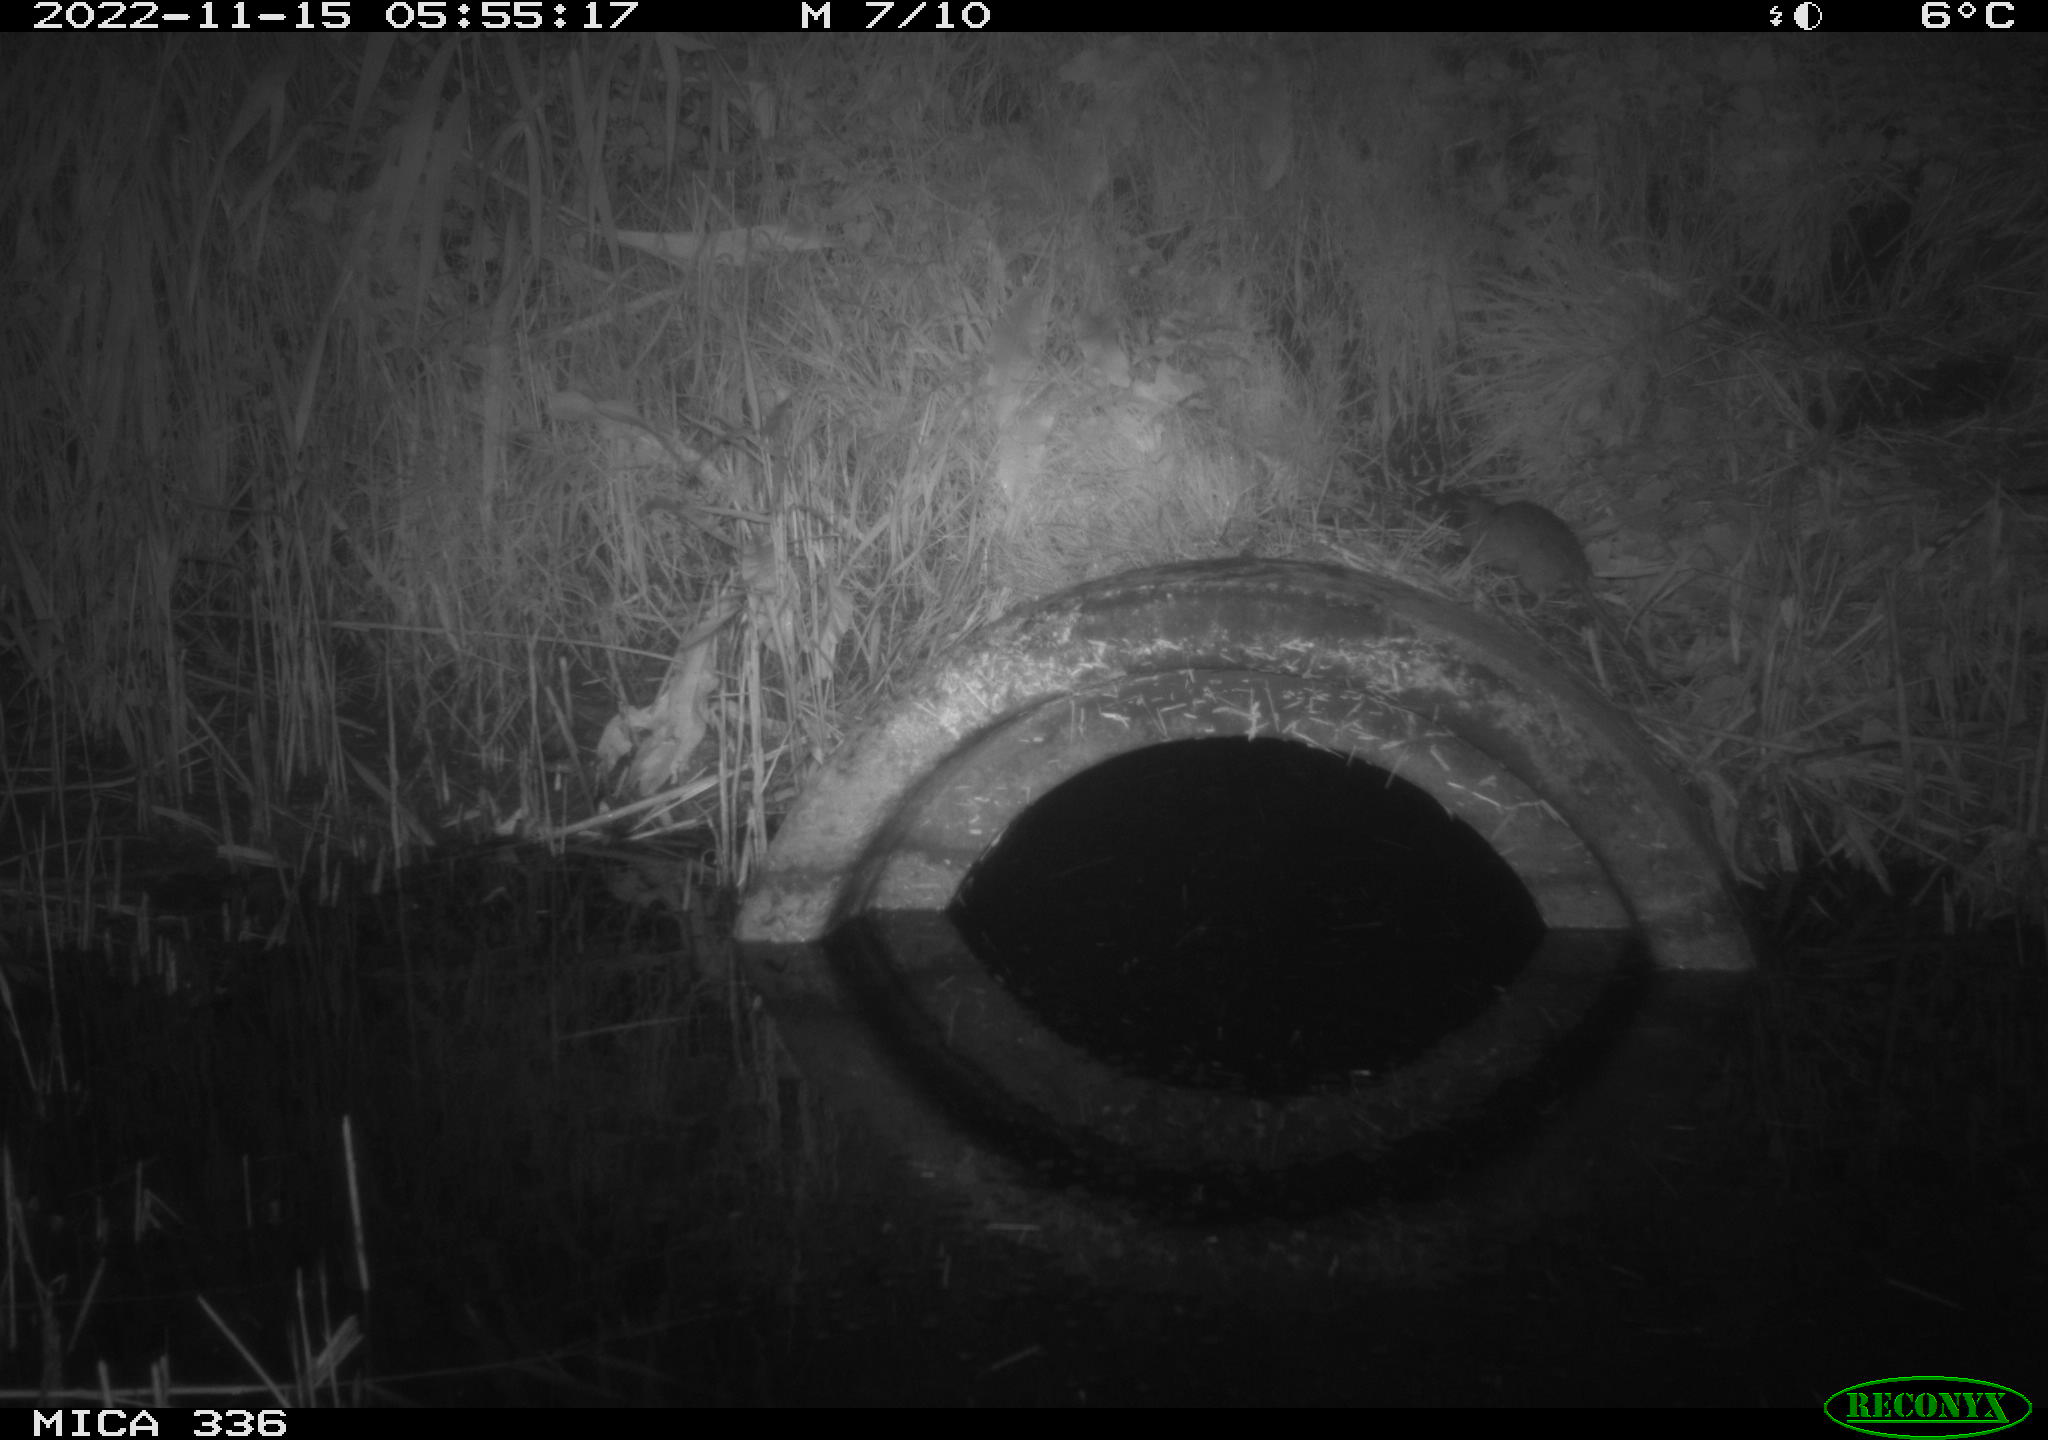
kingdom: Animalia
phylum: Chordata
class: Mammalia
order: Rodentia
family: Muridae
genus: Rattus
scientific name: Rattus norvegicus
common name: Brown rat
